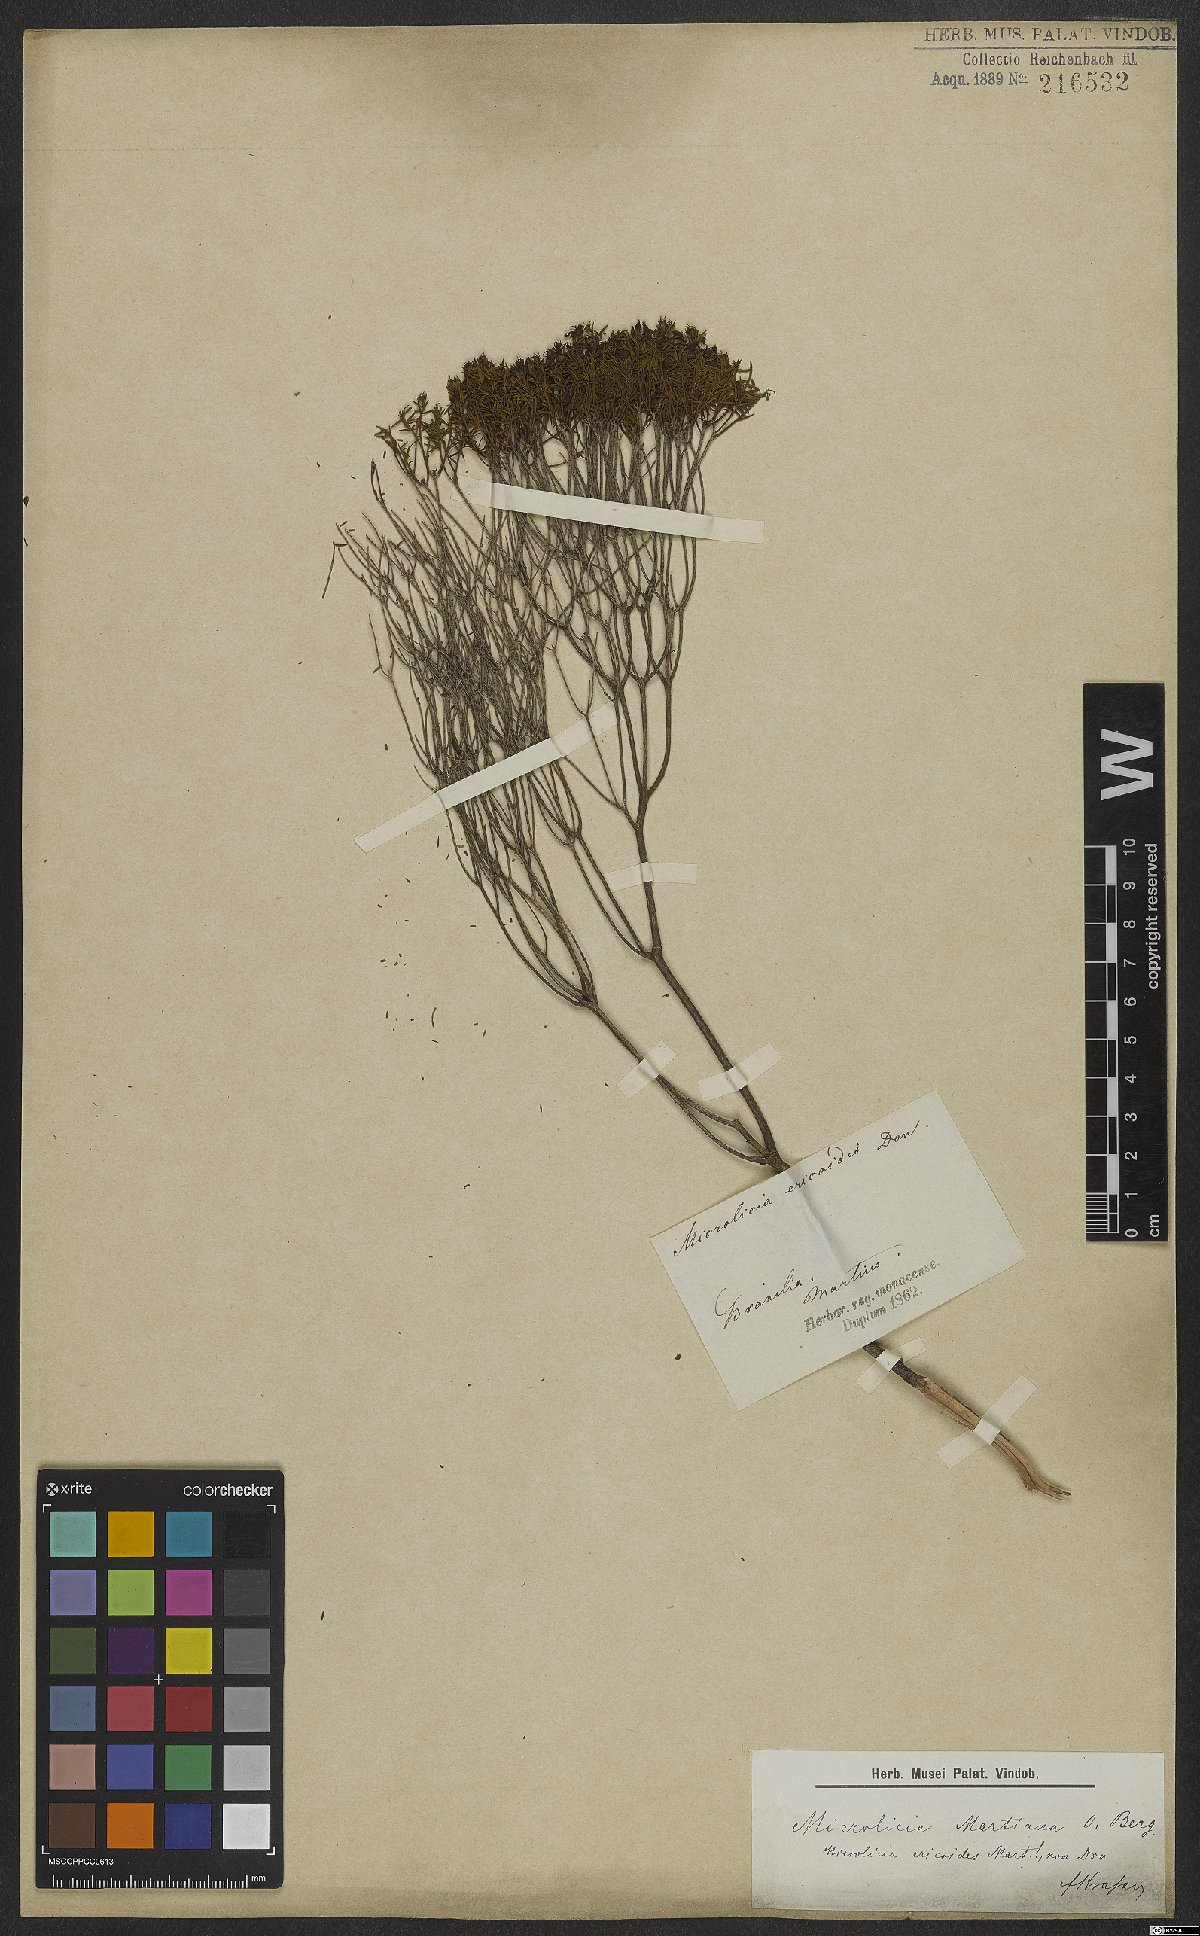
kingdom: Plantae
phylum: Tracheophyta
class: Magnoliopsida
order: Myrtales
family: Melastomataceae
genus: Microlicia
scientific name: Microlicia martiana
